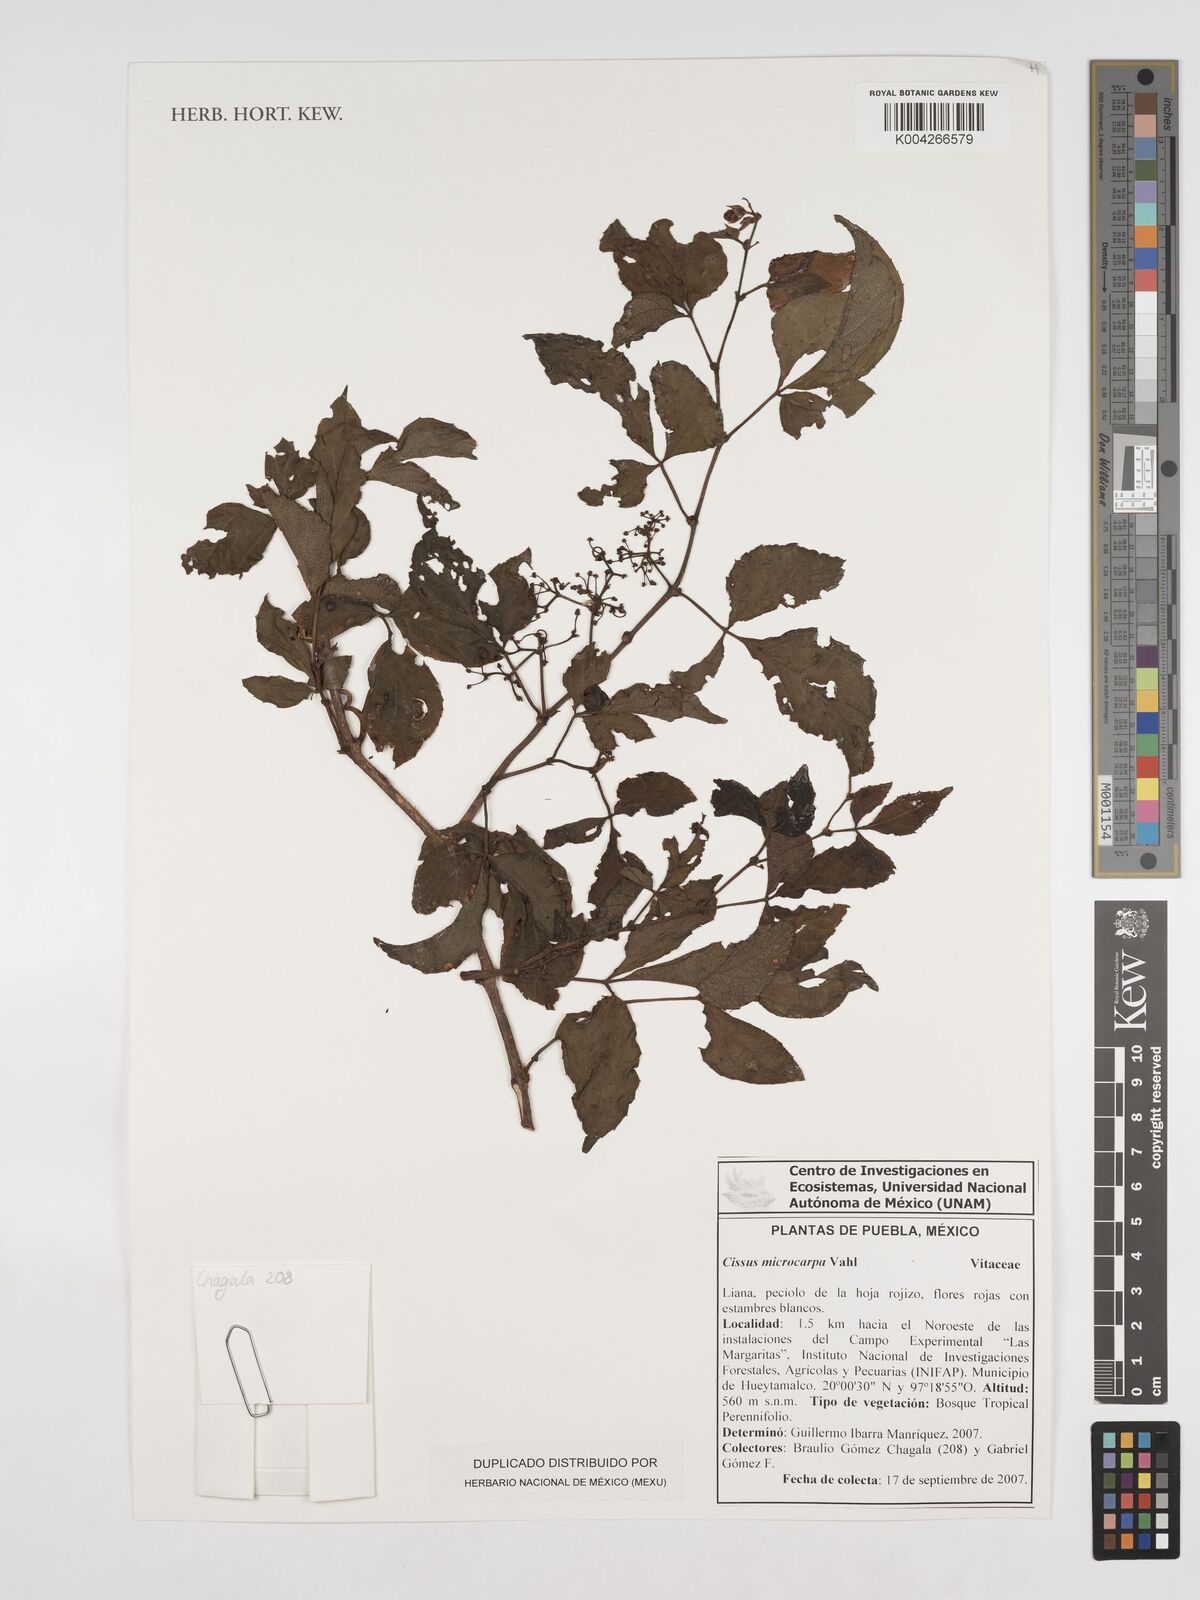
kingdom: Plantae
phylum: Tracheophyta
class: Magnoliopsida
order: Vitales
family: Vitaceae
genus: Cissus
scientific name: Cissus microcarpa
